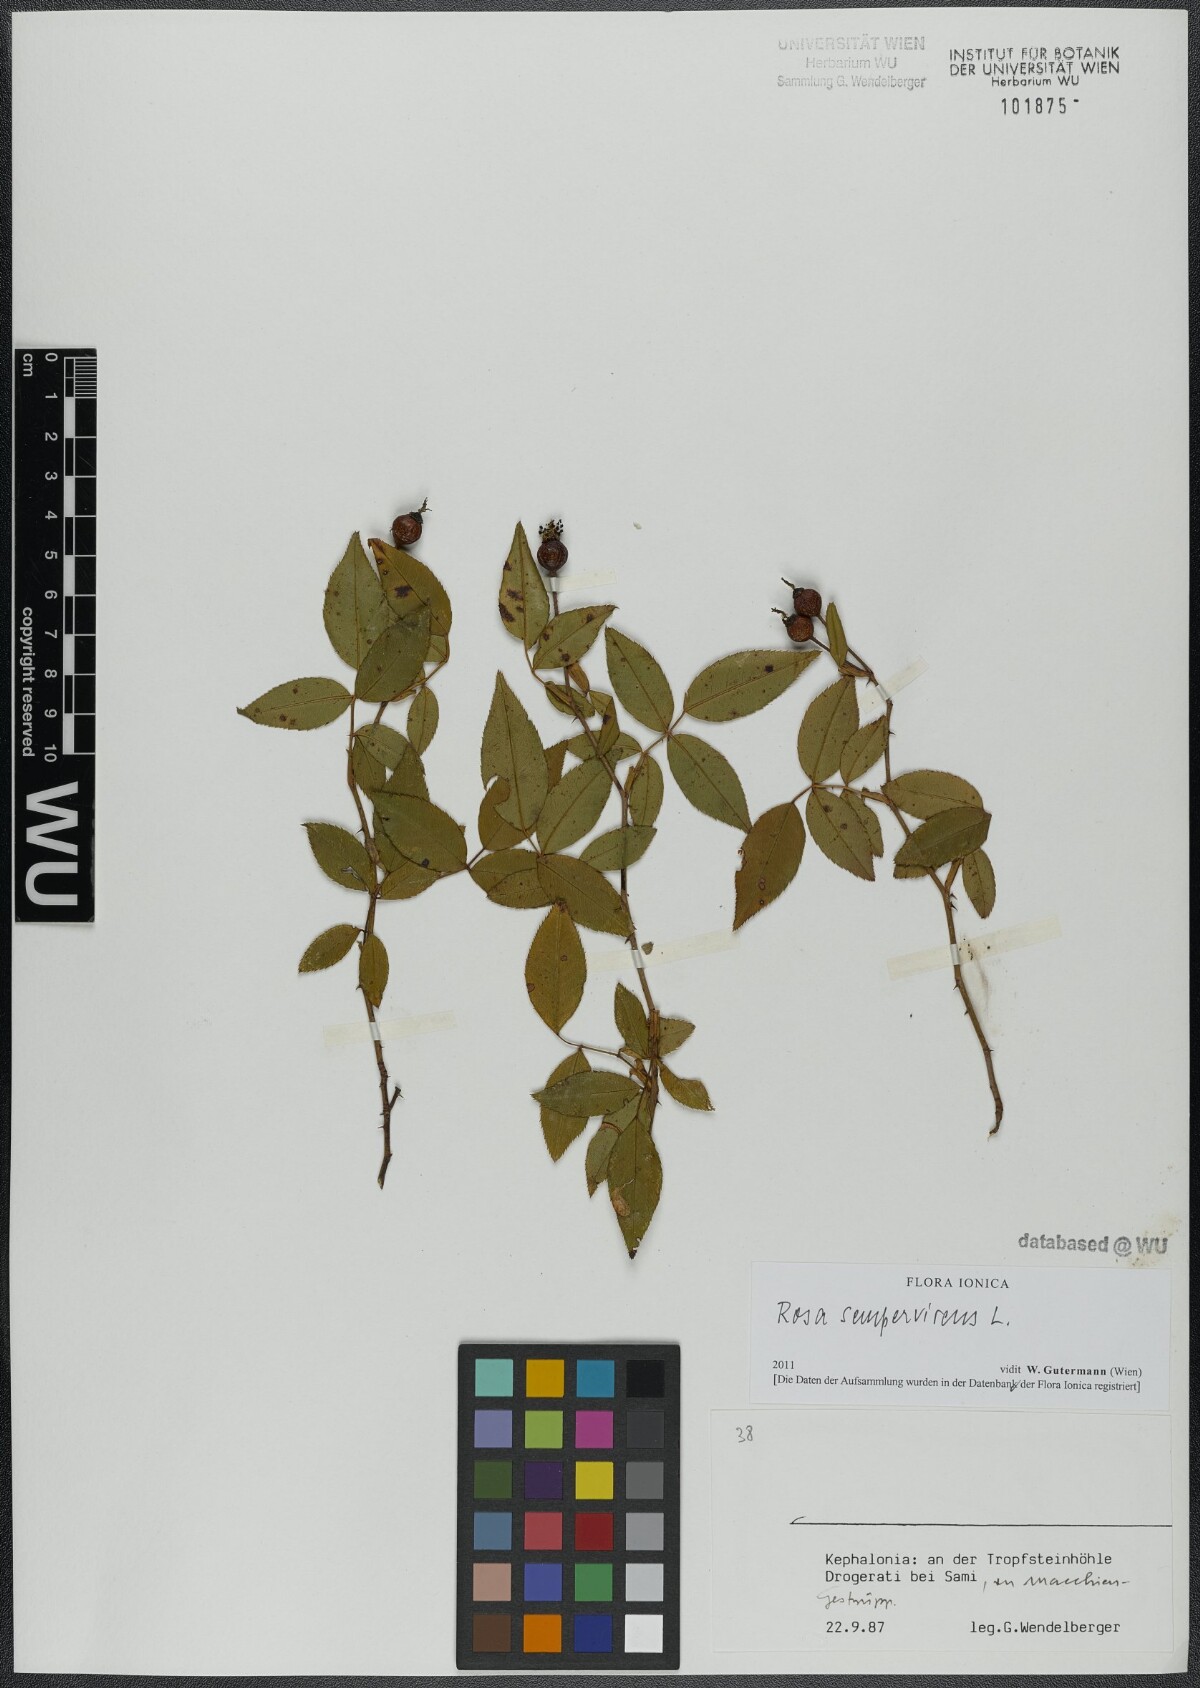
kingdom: Plantae
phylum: Tracheophyta
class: Magnoliopsida
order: Rosales
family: Rosaceae
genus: Rosa
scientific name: Rosa sempervirens
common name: Evergreen rose
